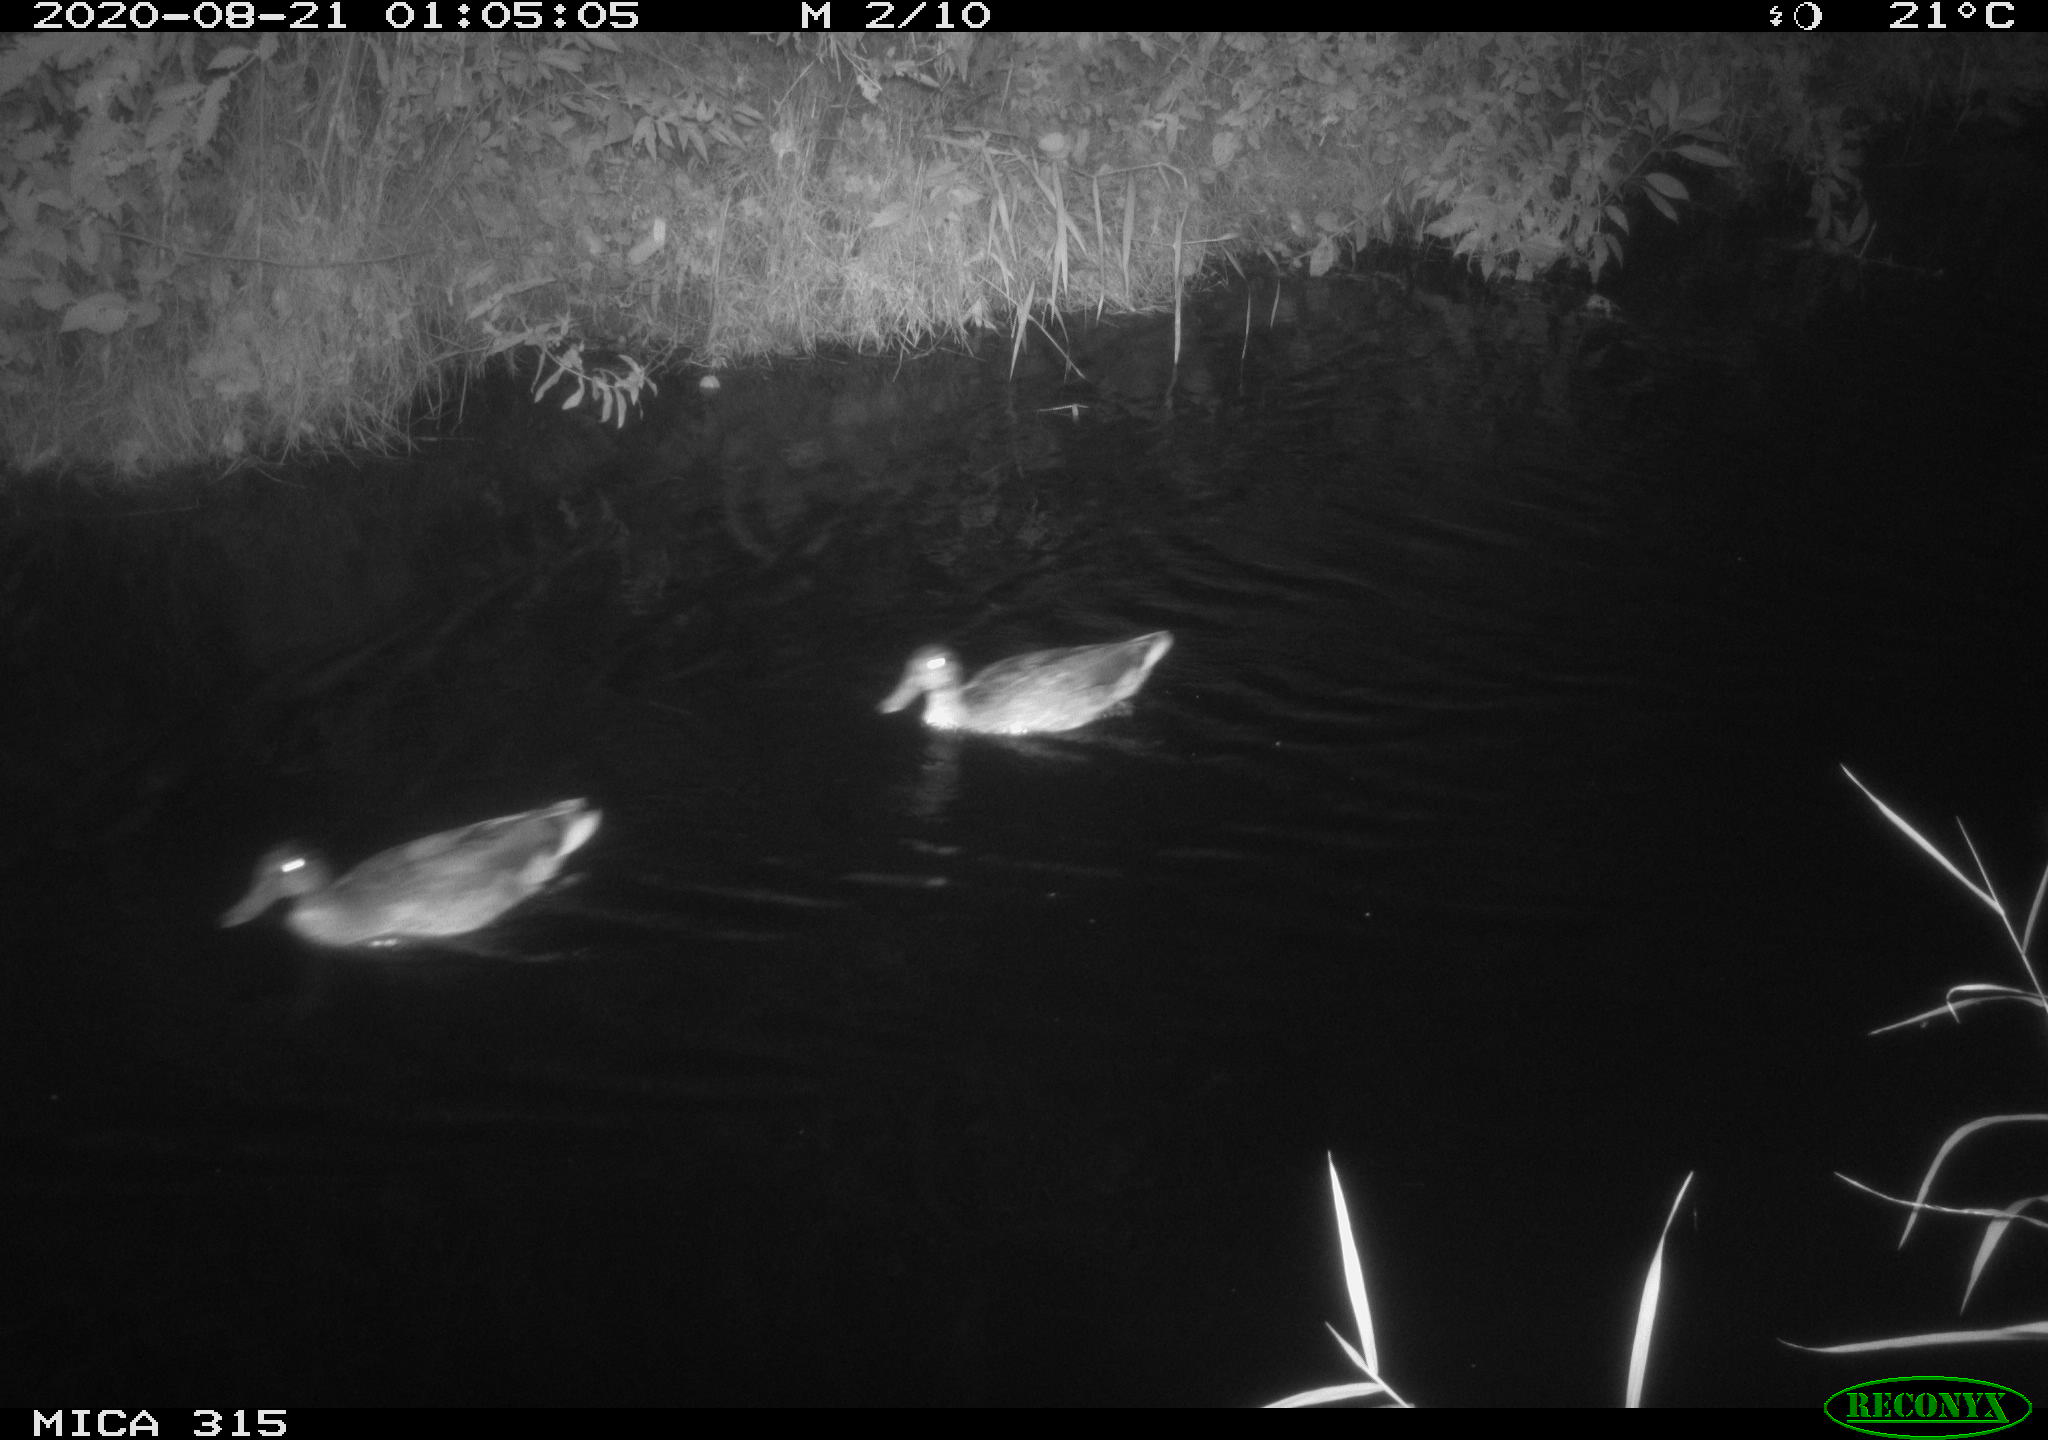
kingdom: Animalia
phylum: Chordata
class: Aves
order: Anseriformes
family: Anatidae
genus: Anas
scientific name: Anas platyrhynchos
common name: Mallard
